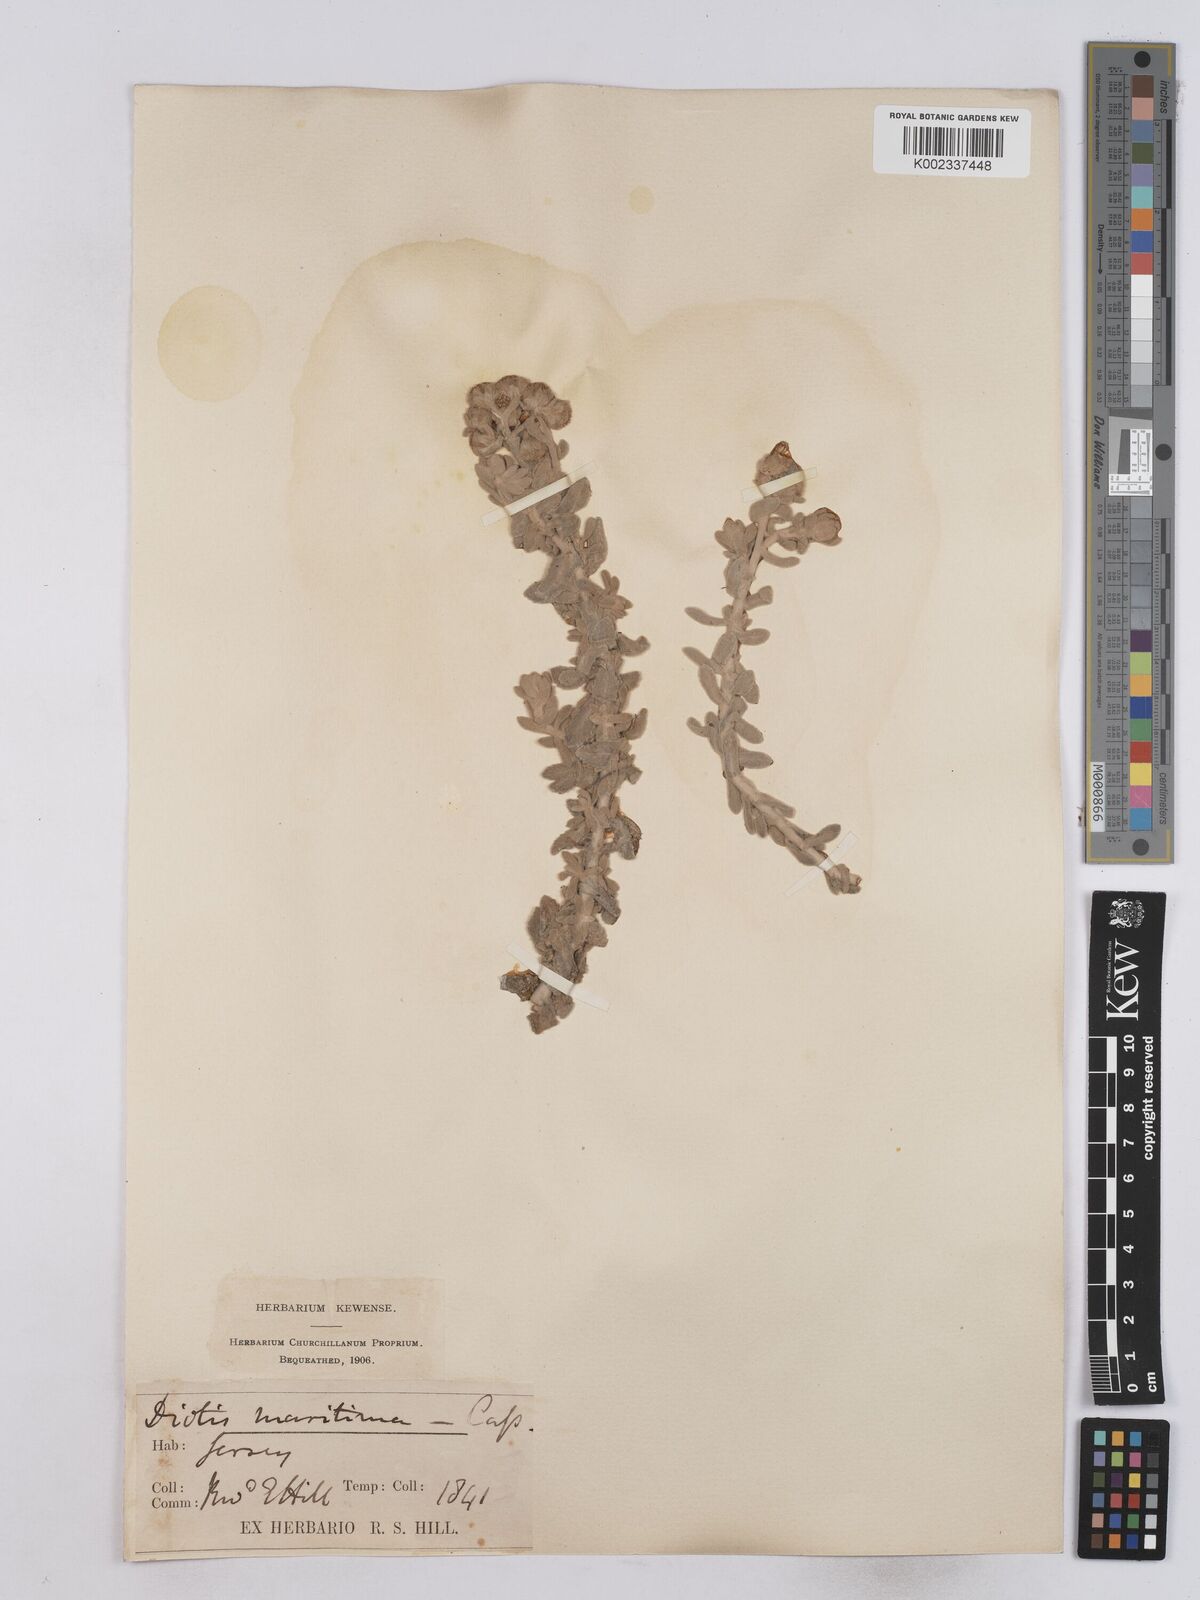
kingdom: Plantae
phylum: Tracheophyta
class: Magnoliopsida
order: Asterales
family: Asteraceae
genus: Achillea
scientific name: Achillea maritima
